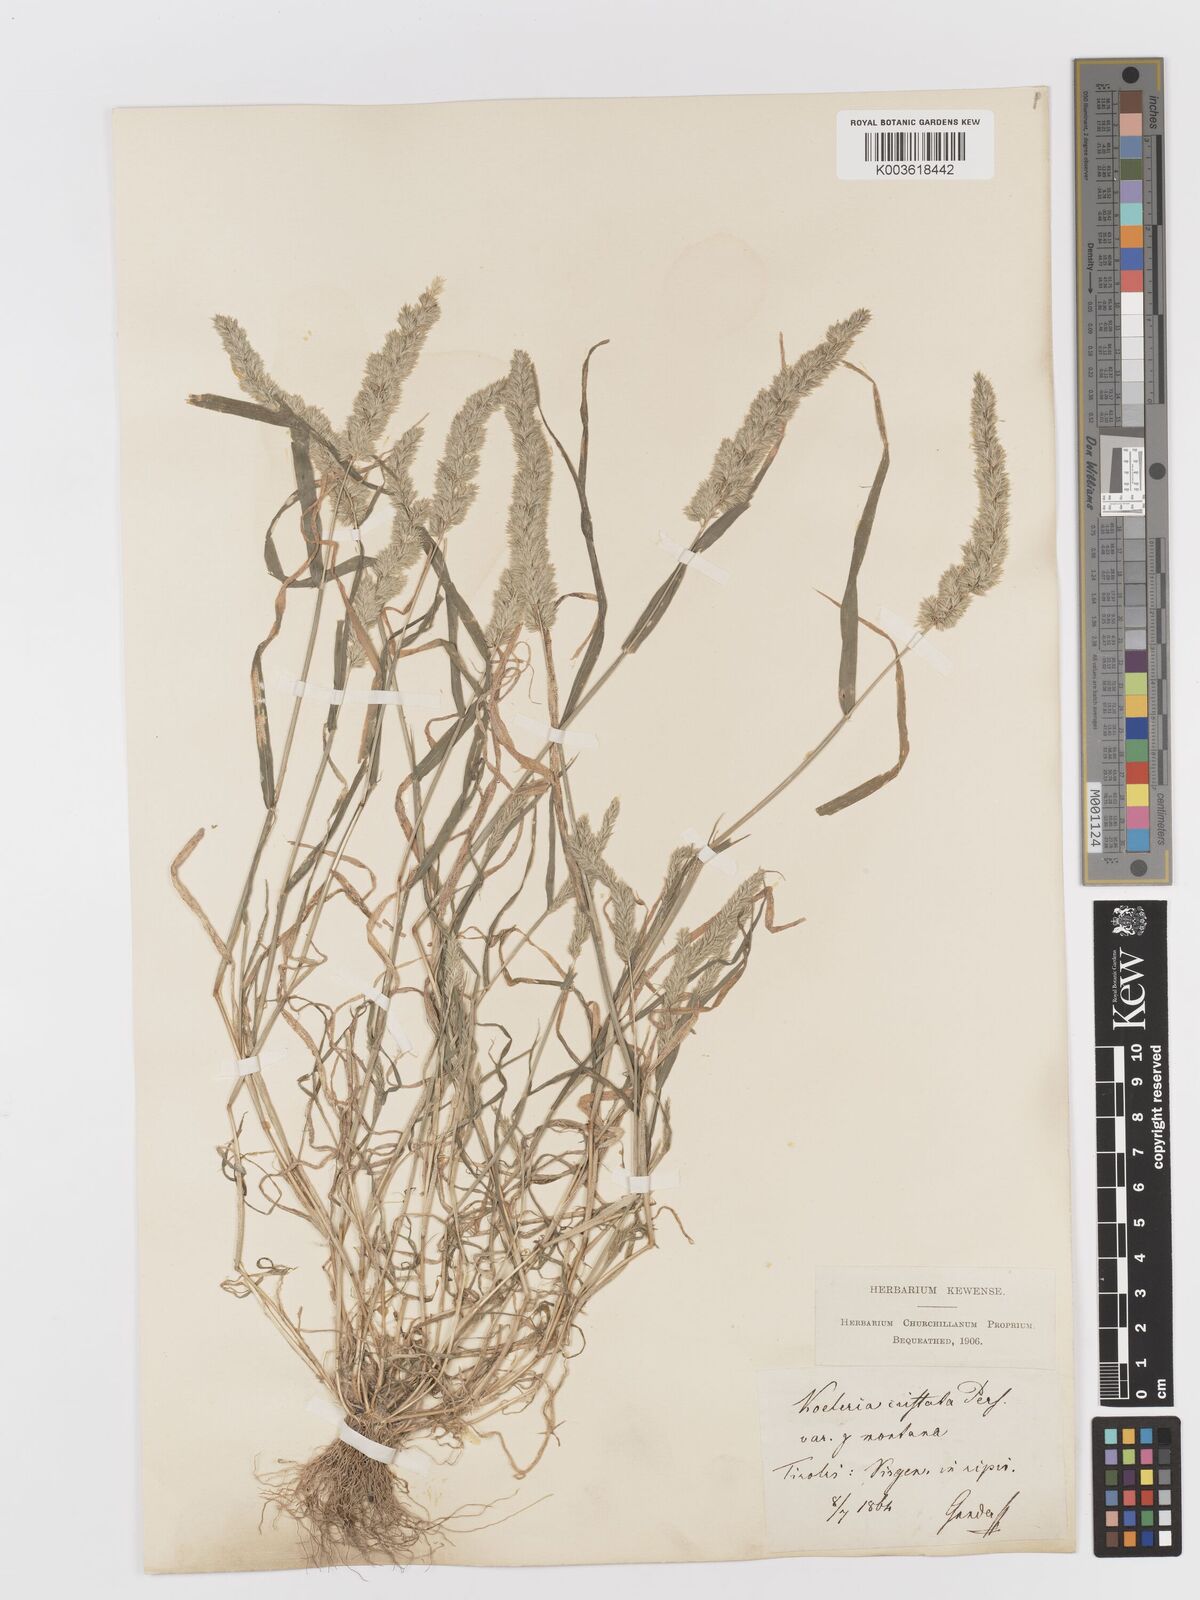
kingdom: Plantae
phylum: Tracheophyta
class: Liliopsida
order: Poales
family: Poaceae
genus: Rostraria
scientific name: Rostraria cristata
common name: Mediterranean hair-grass
